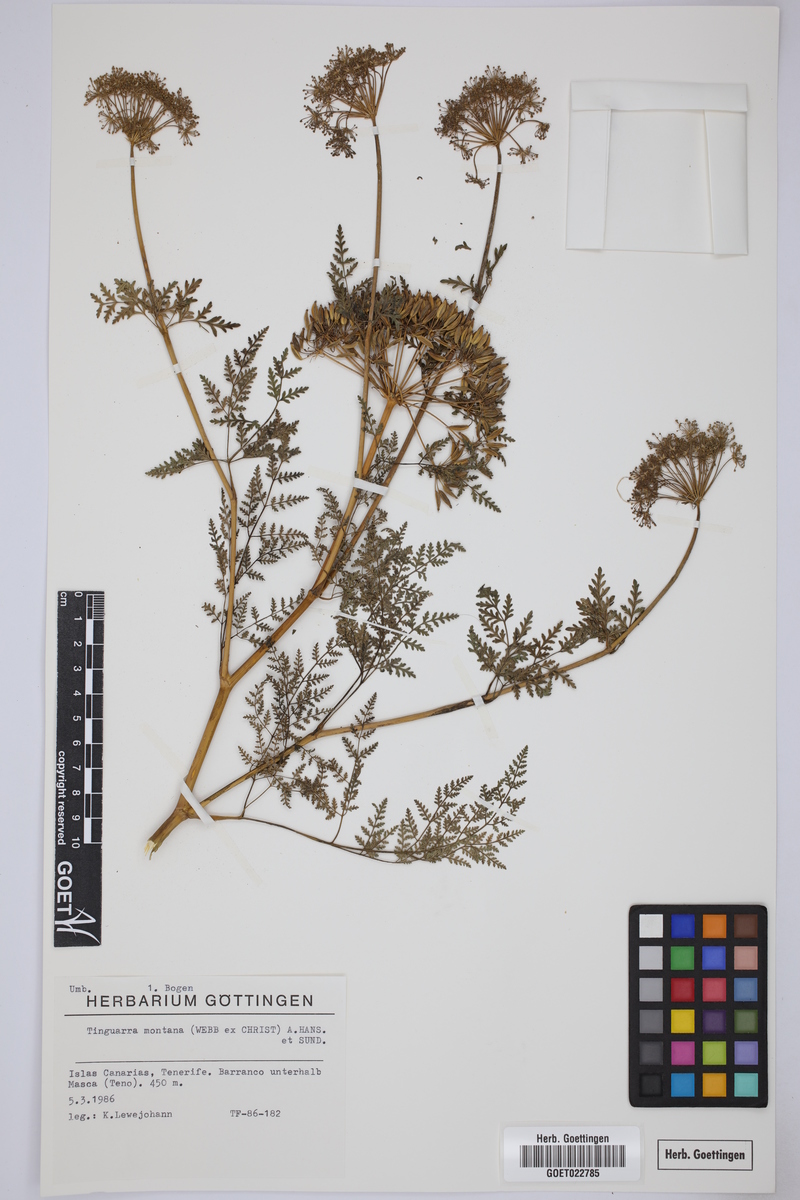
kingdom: Plantae
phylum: Tracheophyta
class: Magnoliopsida
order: Apiales
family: Apiaceae
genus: Athamanta
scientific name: Athamanta montana
